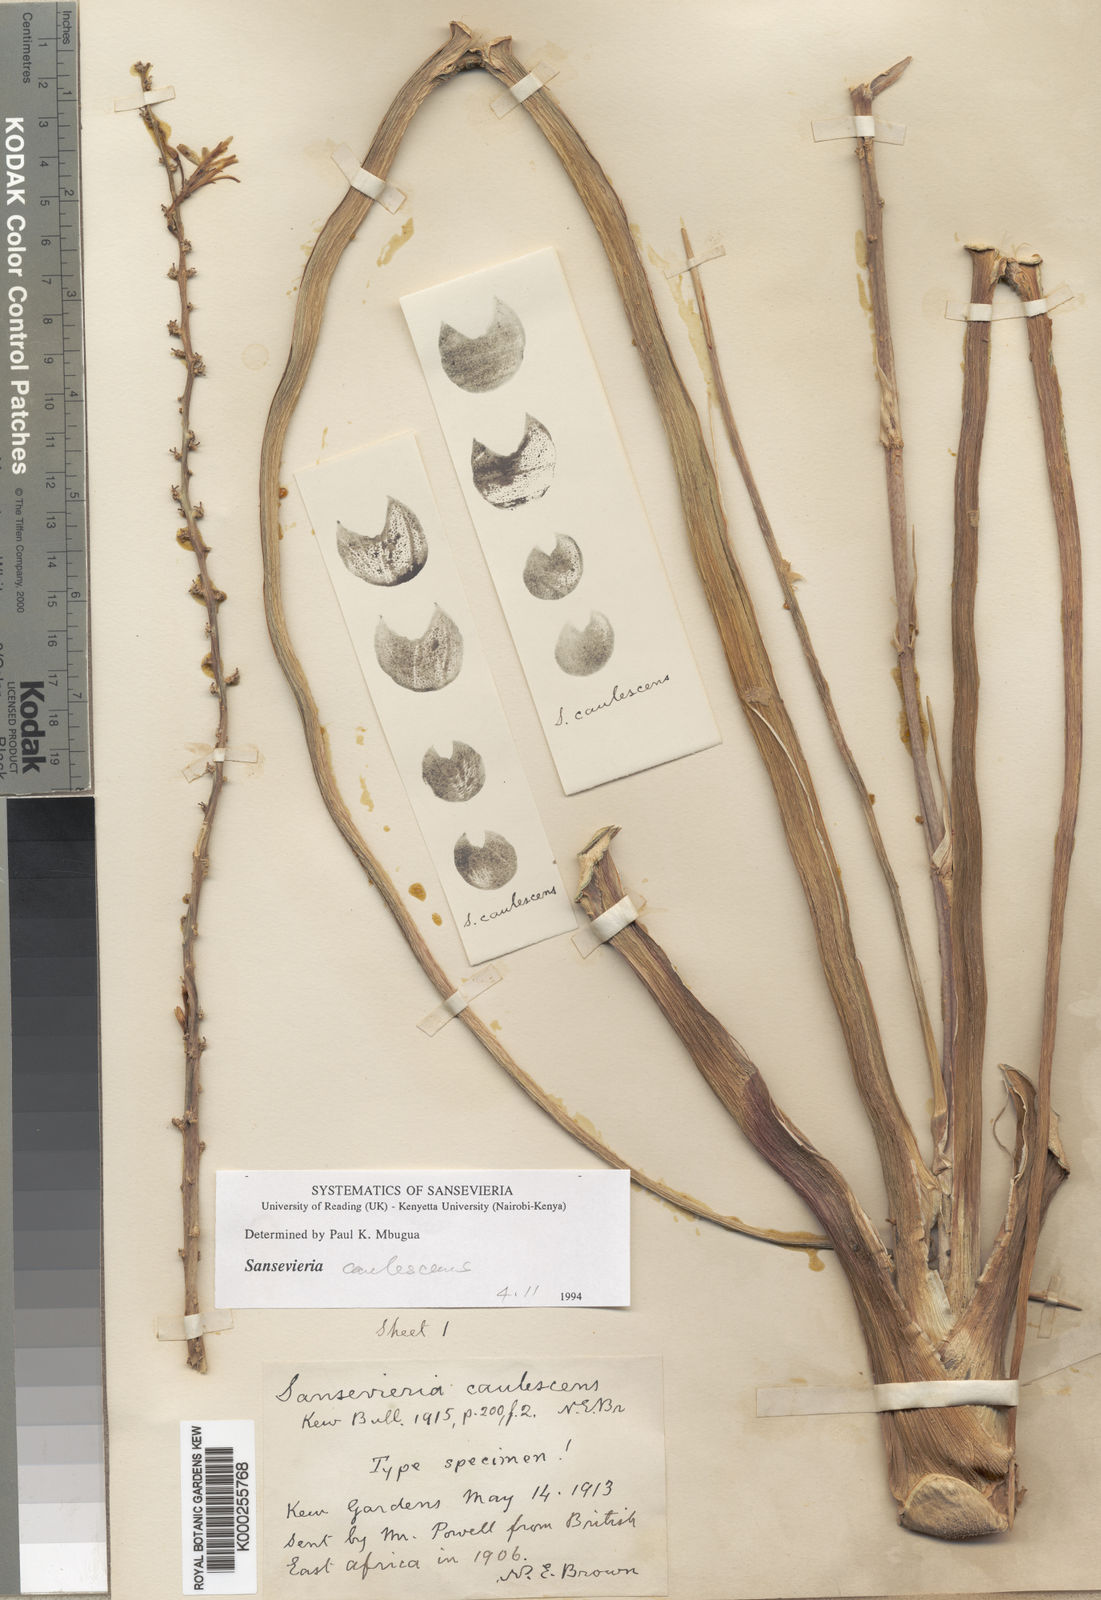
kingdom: Plantae
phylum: Tracheophyta
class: Liliopsida
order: Asparagales
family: Asparagaceae
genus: Dracaena
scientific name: Dracaena caulescens
